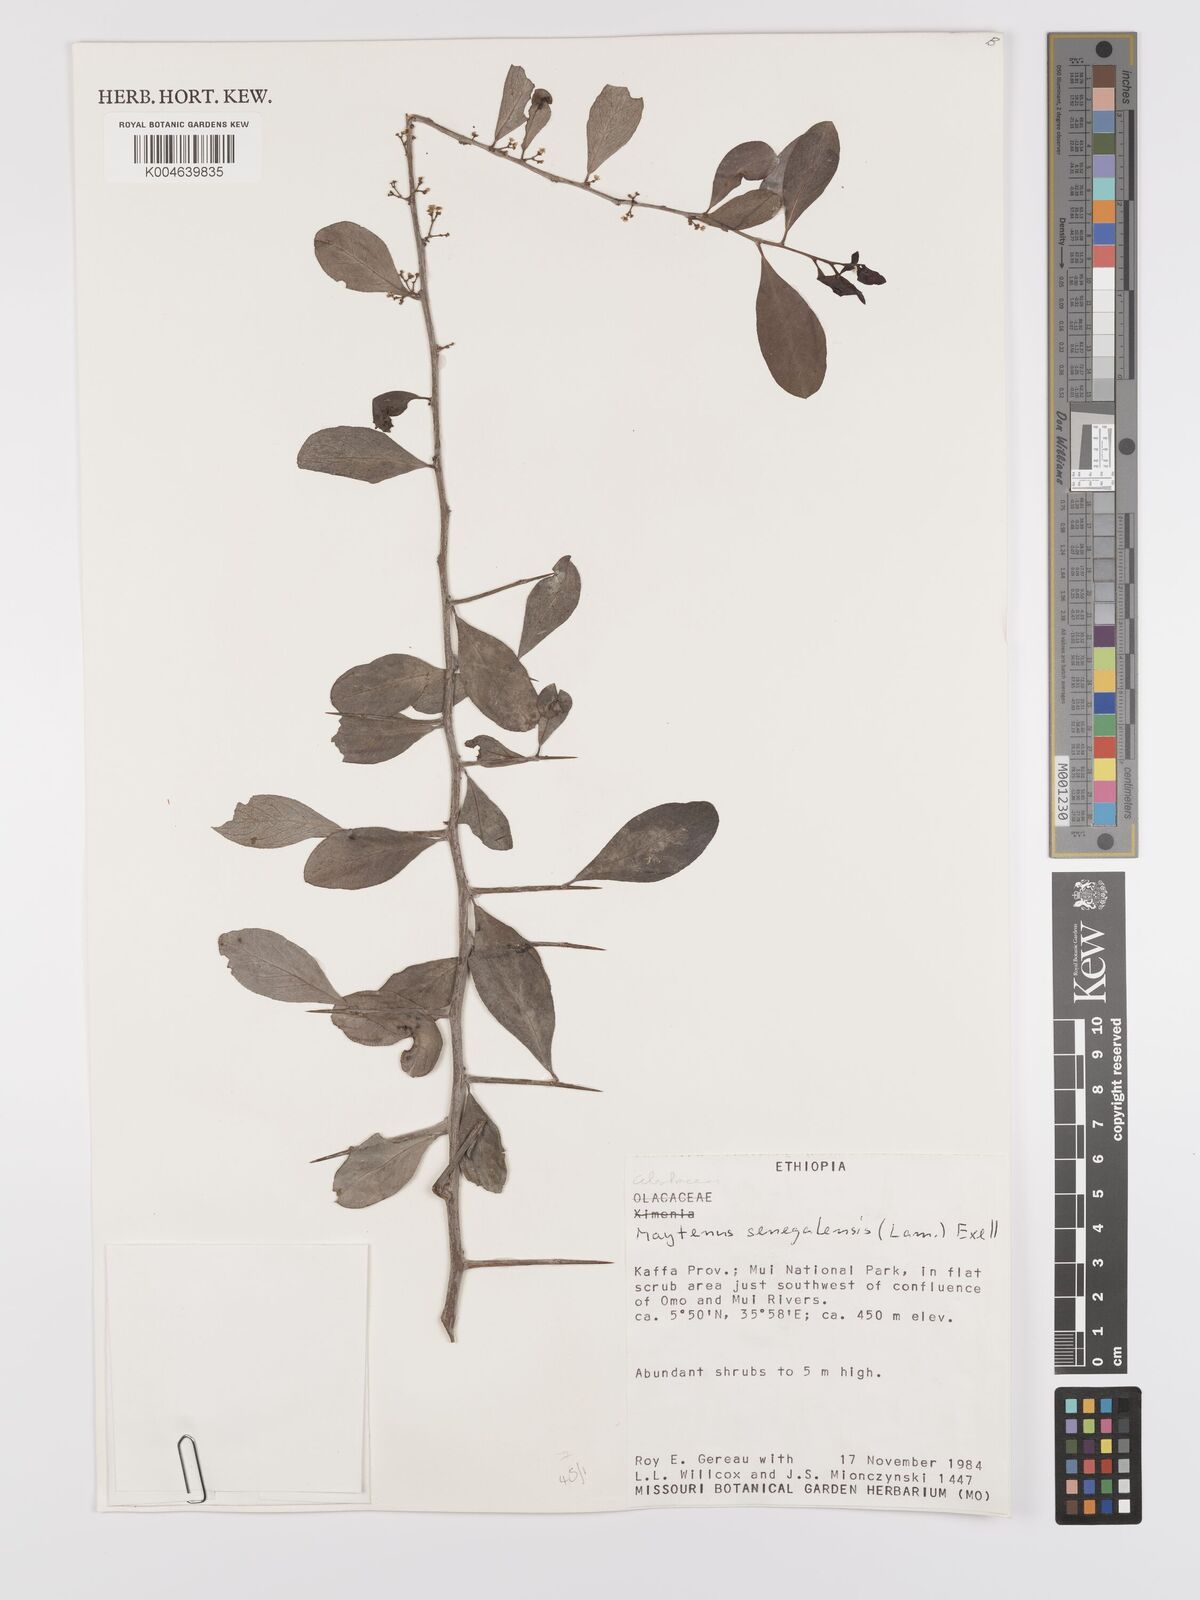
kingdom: Plantae
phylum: Tracheophyta
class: Magnoliopsida
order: Celastrales
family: Celastraceae
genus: Gymnosporia
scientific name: Gymnosporia senegalensis
